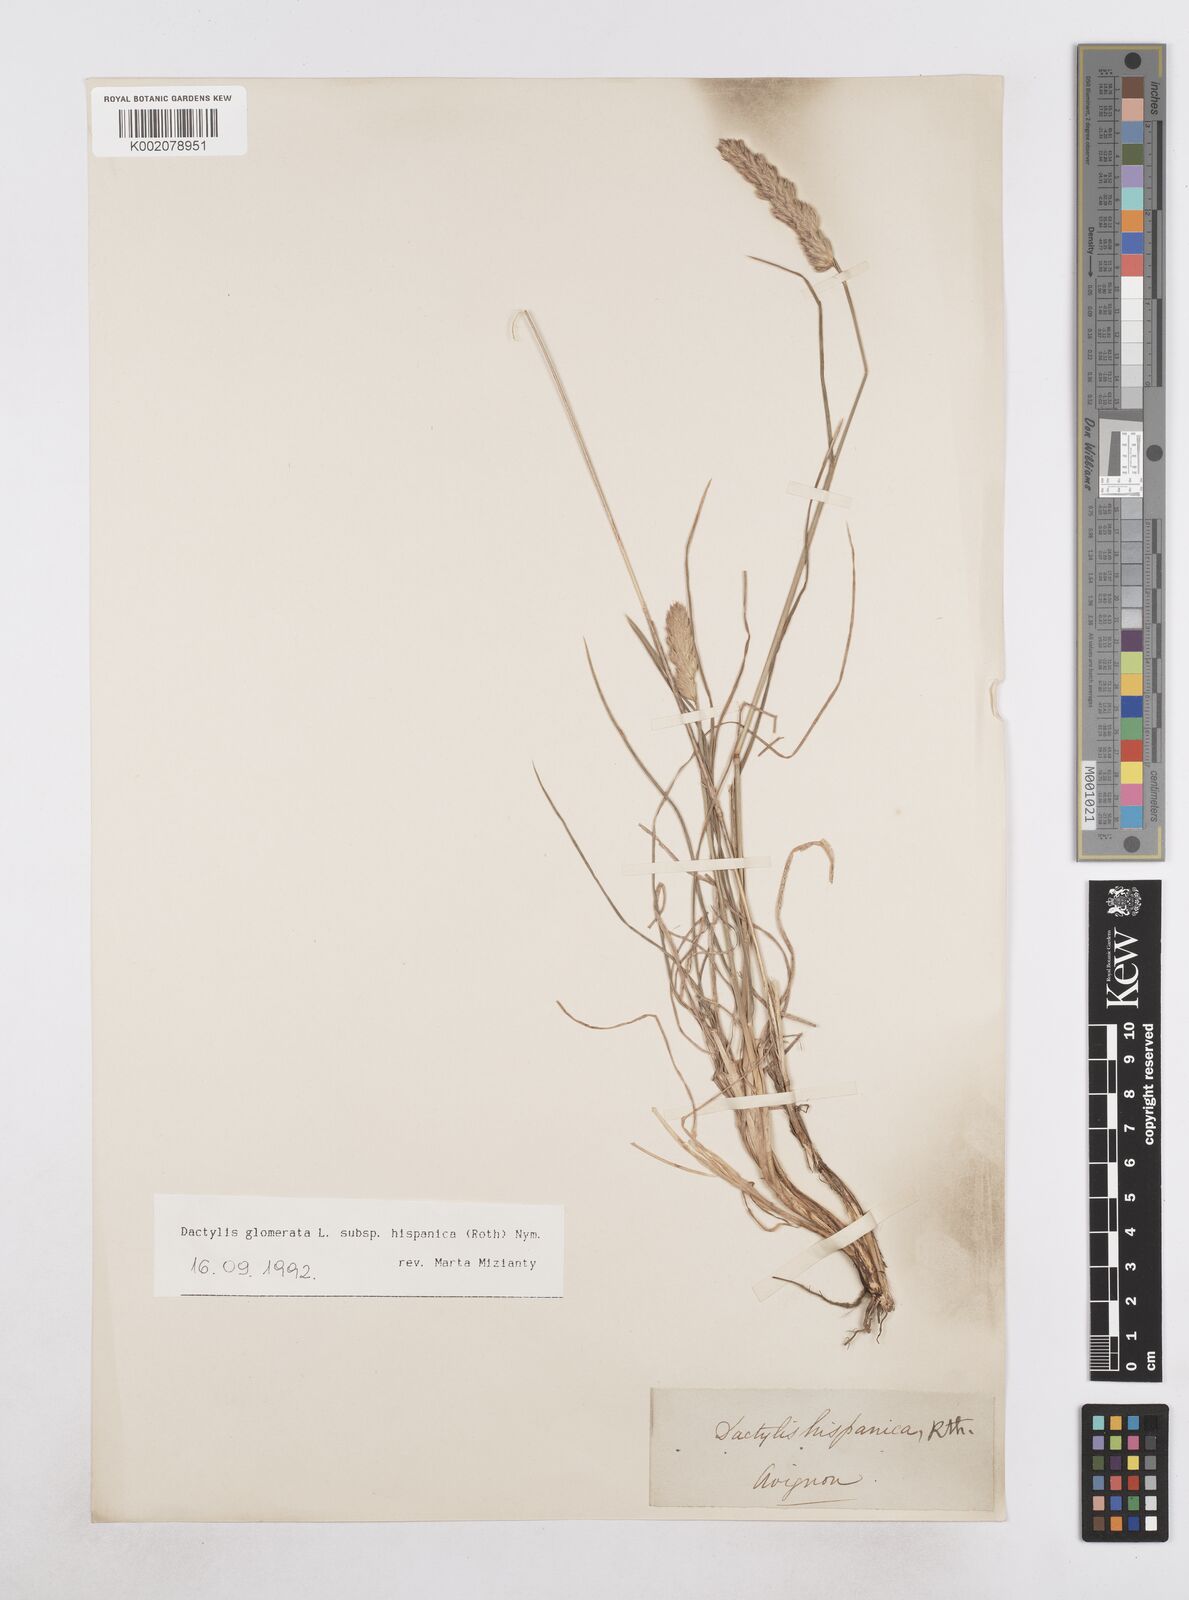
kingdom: Plantae
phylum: Tracheophyta
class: Liliopsida
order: Poales
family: Poaceae
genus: Dactylis
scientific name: Dactylis glomerata
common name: Orchardgrass
